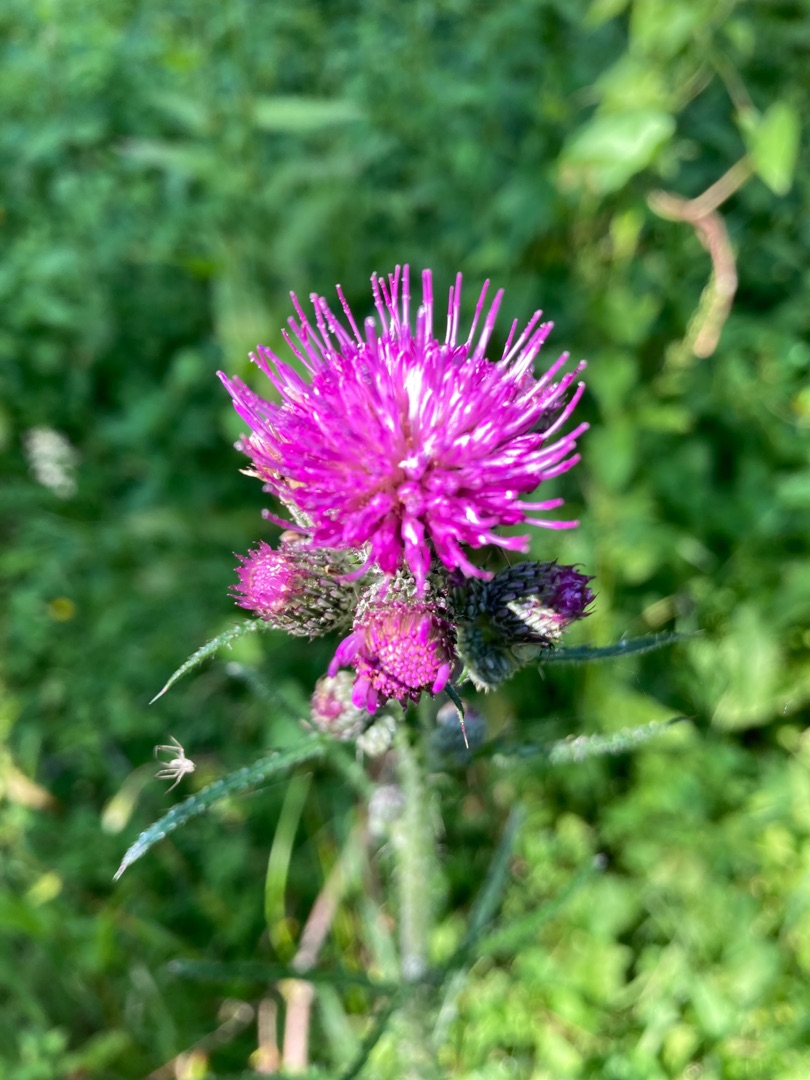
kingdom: Plantae
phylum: Tracheophyta
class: Magnoliopsida
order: Asterales
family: Asteraceae
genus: Cirsium
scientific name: Cirsium palustre
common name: Kær-tidsel
